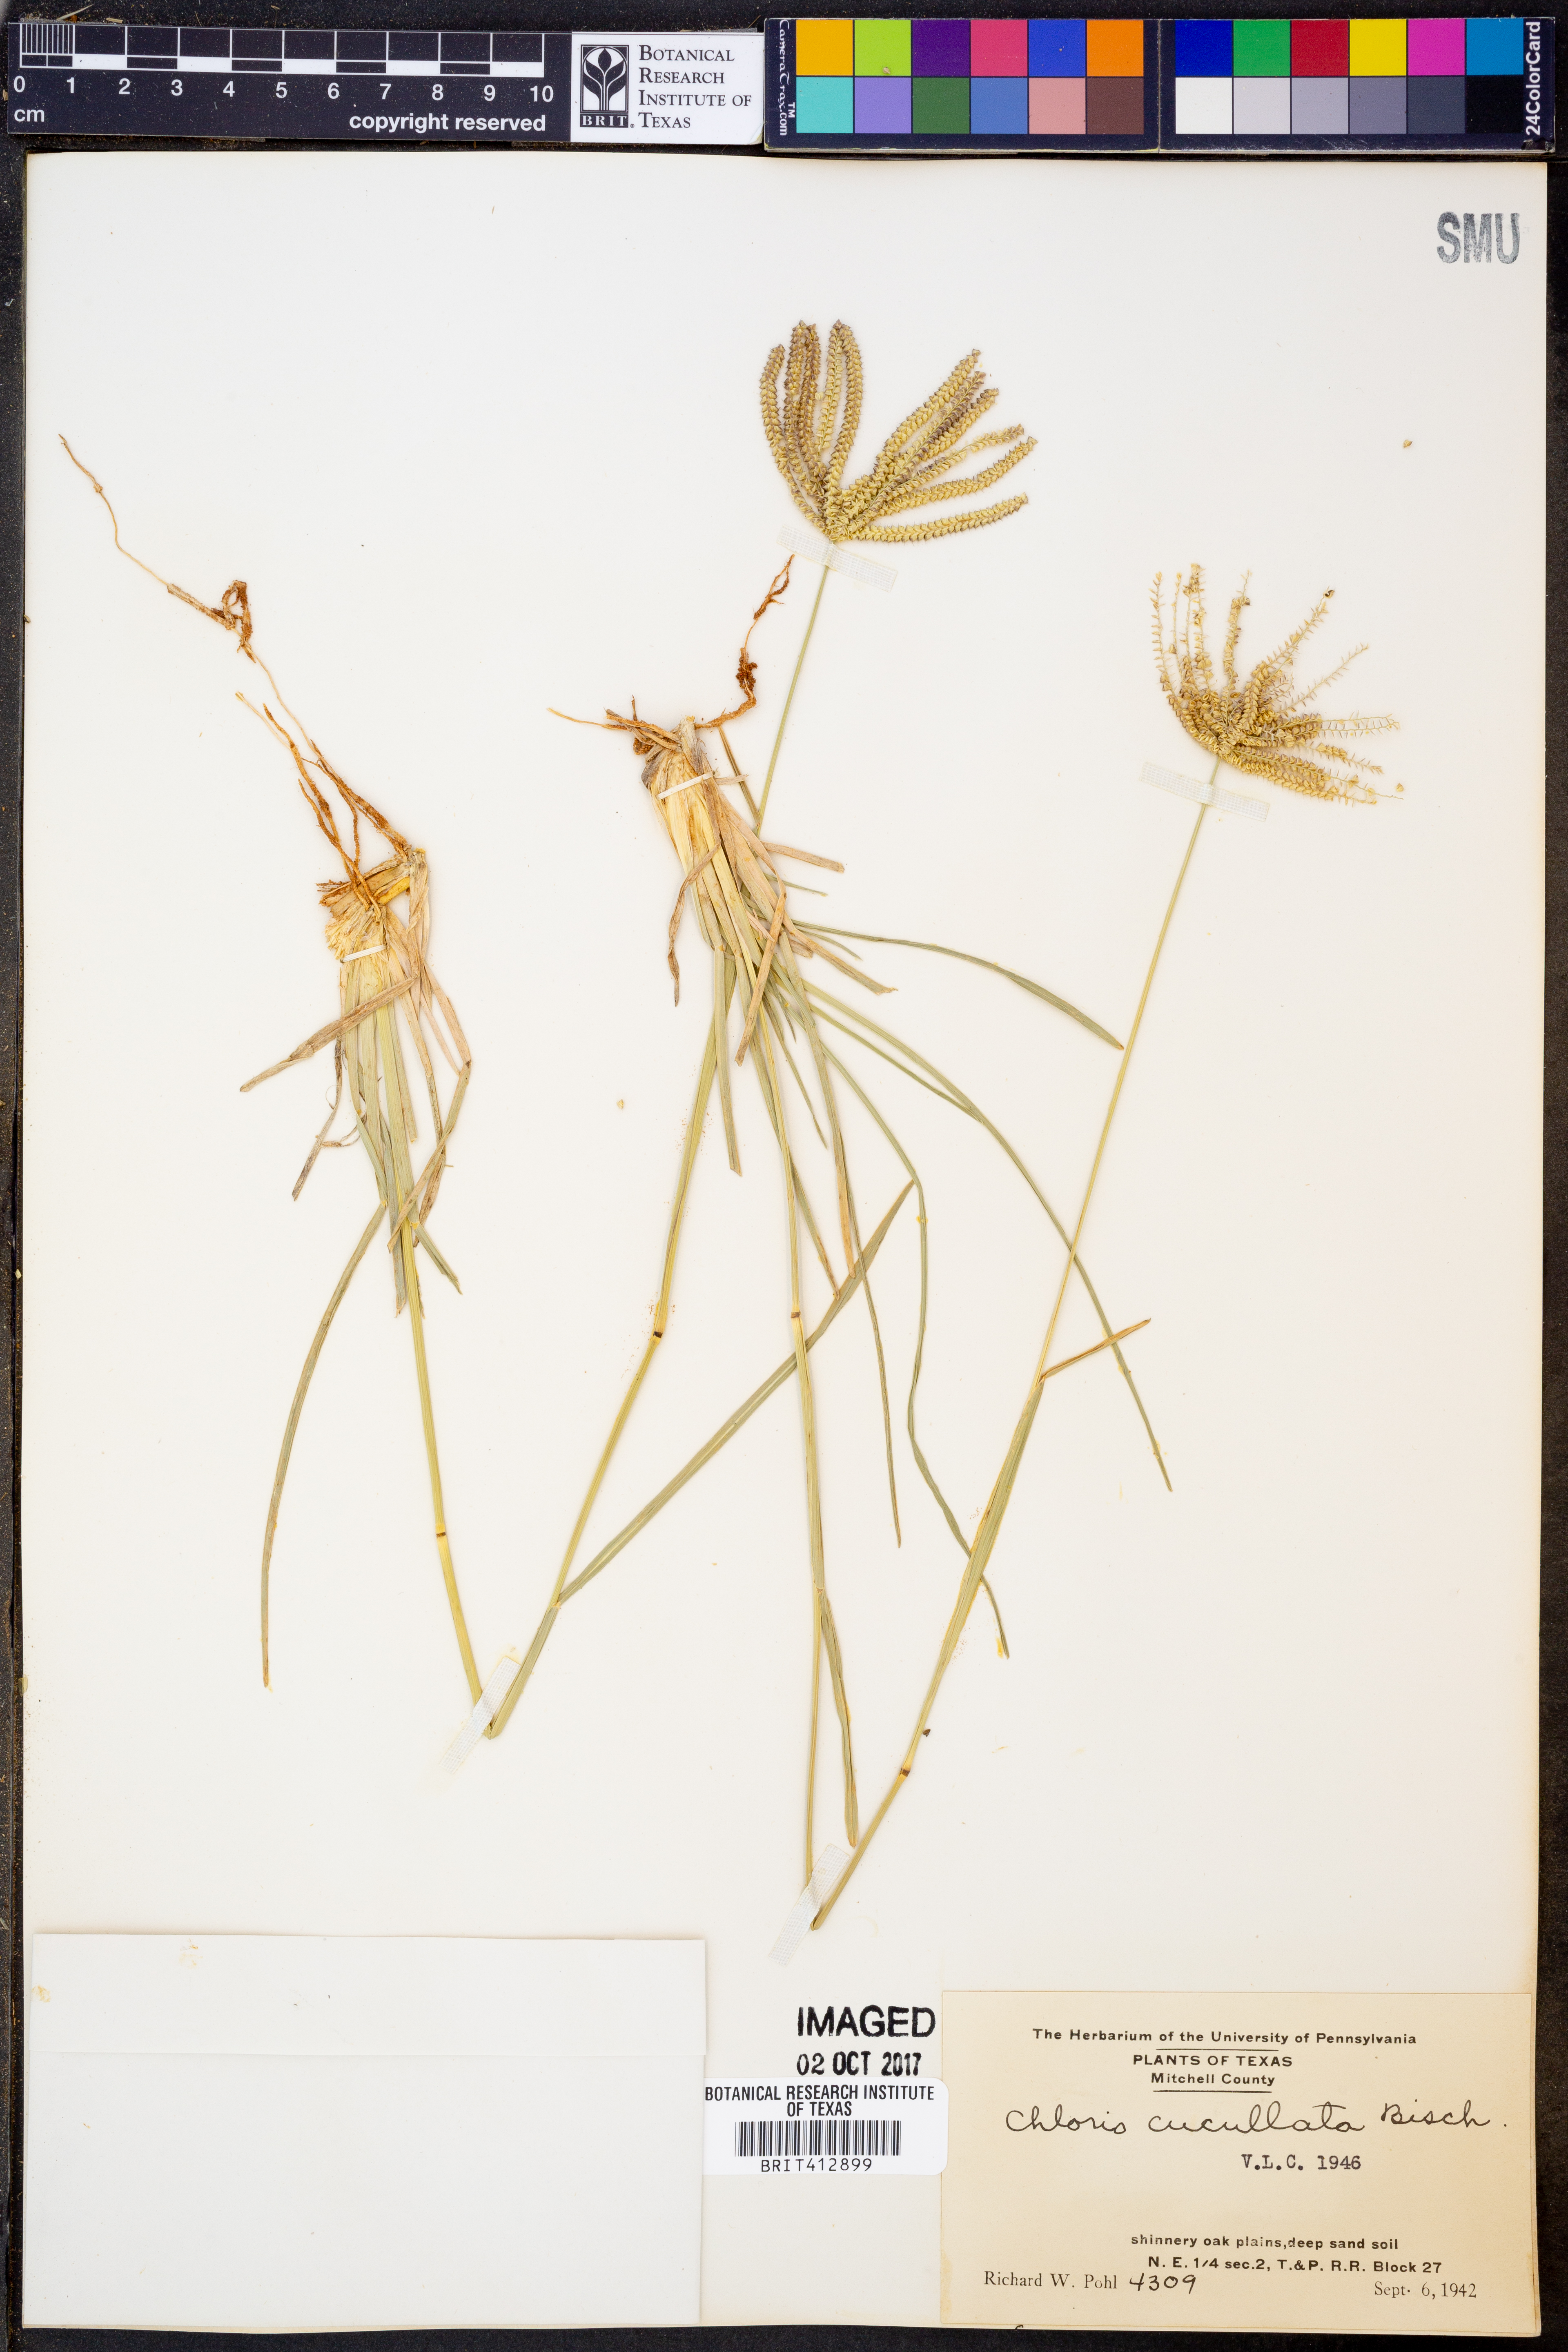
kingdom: Plantae
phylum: Tracheophyta
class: Liliopsida
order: Poales
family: Poaceae
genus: Chloris
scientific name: Chloris cucullata
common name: Hooded windmill grass
